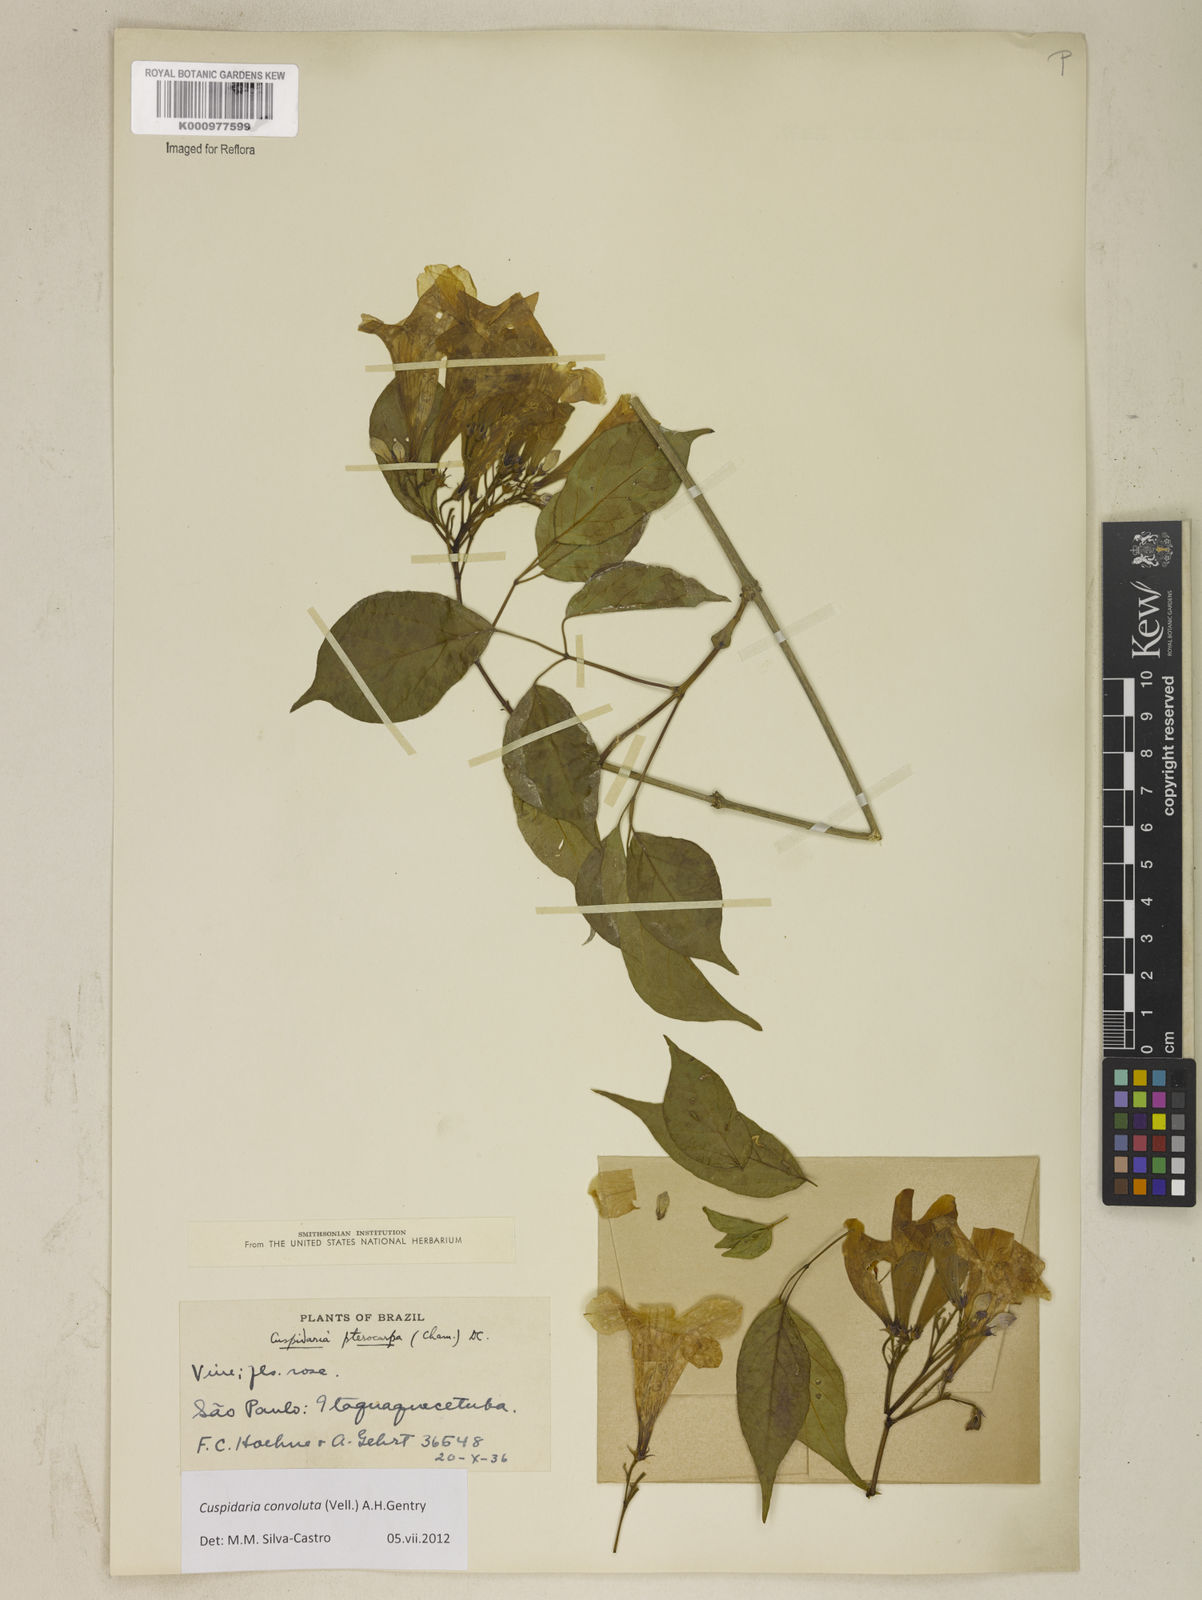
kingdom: Plantae
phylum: Tracheophyta
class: Magnoliopsida
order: Lamiales
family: Bignoniaceae
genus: Cuspidaria
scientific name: Cuspidaria convoluta
